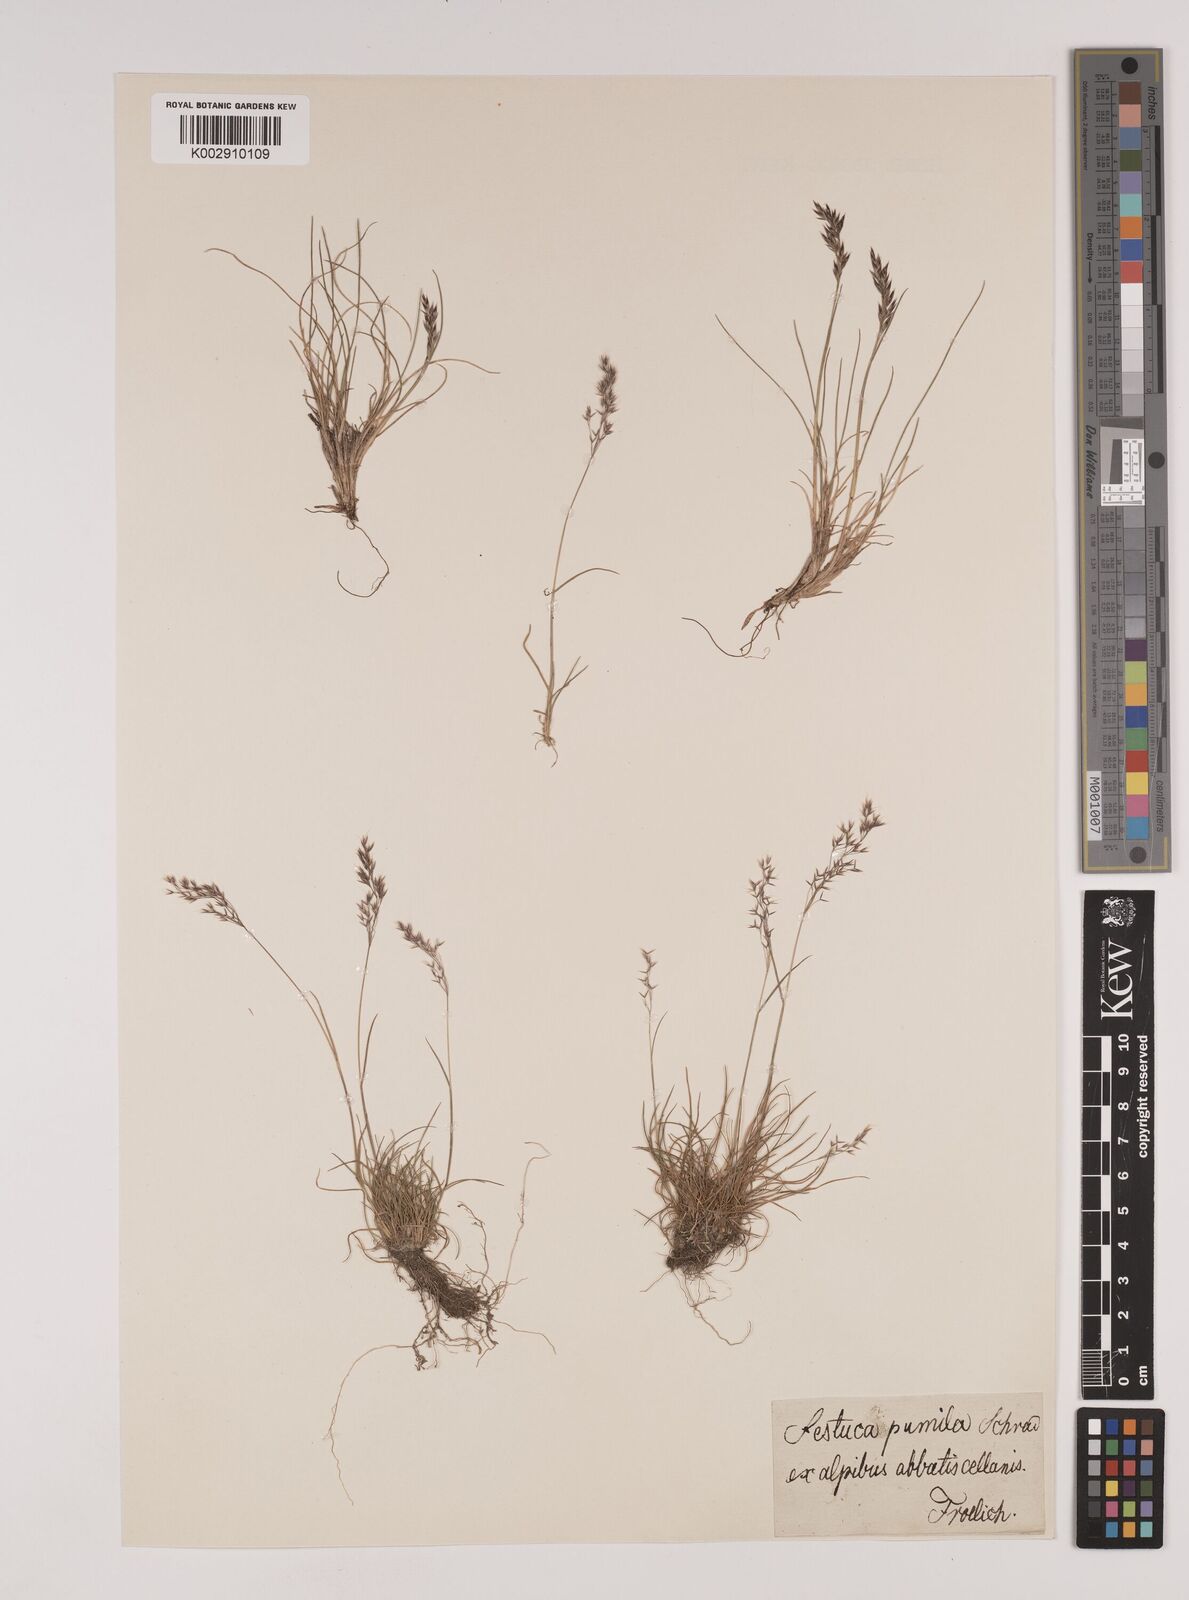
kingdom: Plantae
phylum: Tracheophyta
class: Liliopsida
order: Poales
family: Poaceae
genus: Festuca
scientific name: Festuca
